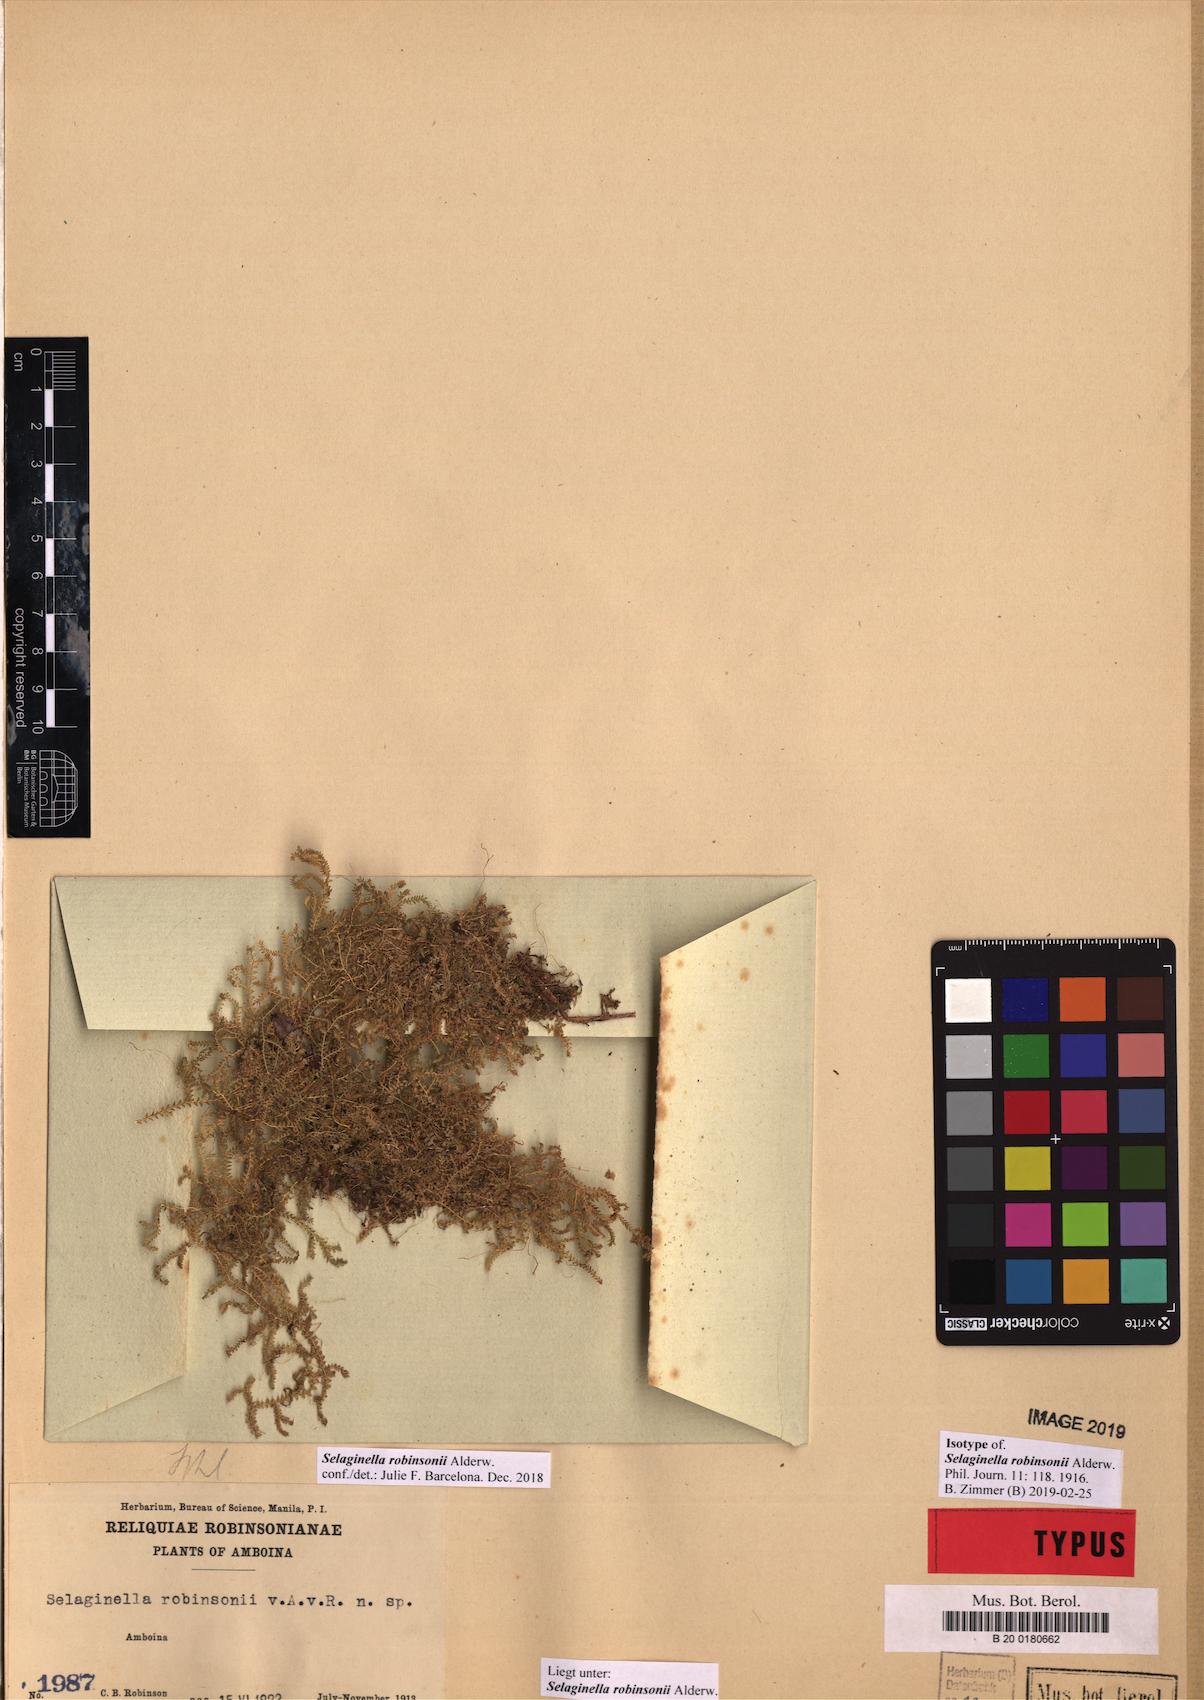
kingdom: Plantae
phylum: Tracheophyta
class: Lycopodiopsida
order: Selaginellales
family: Selaginellaceae
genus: Selaginella
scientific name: Selaginella robinsonii
